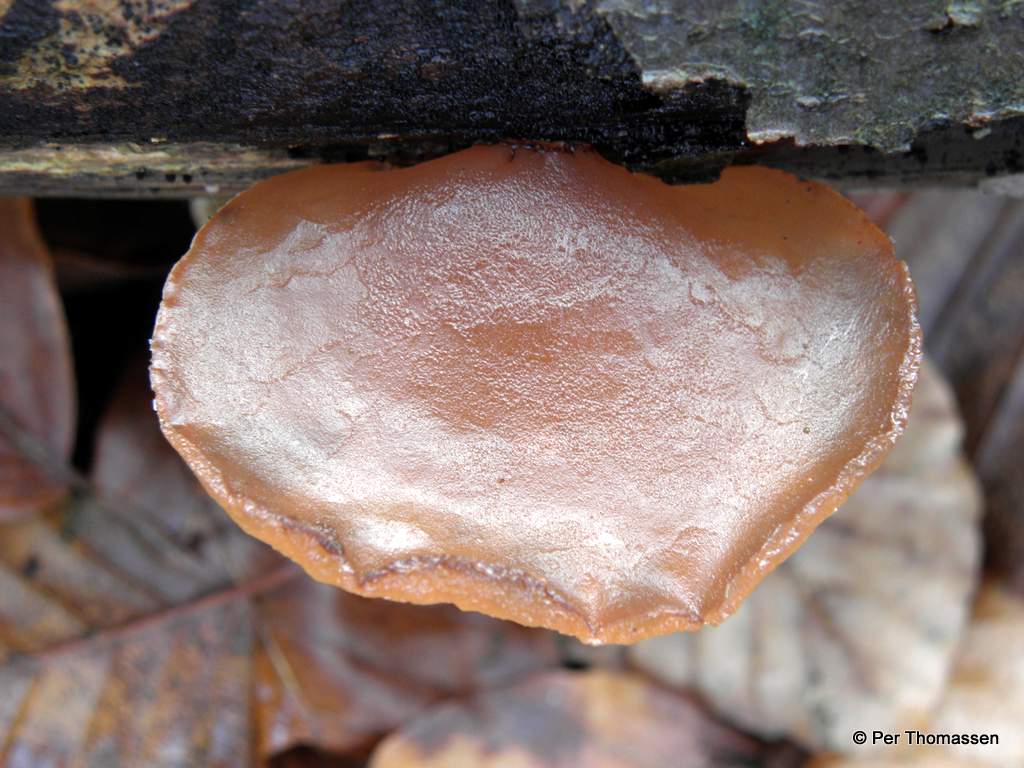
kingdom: Fungi
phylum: Basidiomycota
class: Agaricomycetes
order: Auriculariales
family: Auriculariaceae
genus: Auricularia
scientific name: Auricularia auricula-judae
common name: almindelig judasøre
